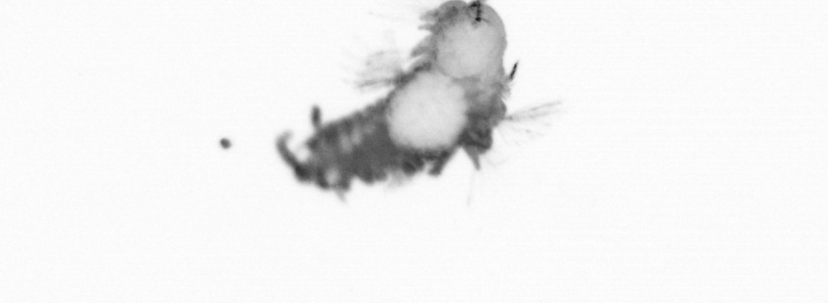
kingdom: Animalia
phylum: Annelida
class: Polychaeta
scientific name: Polychaeta
